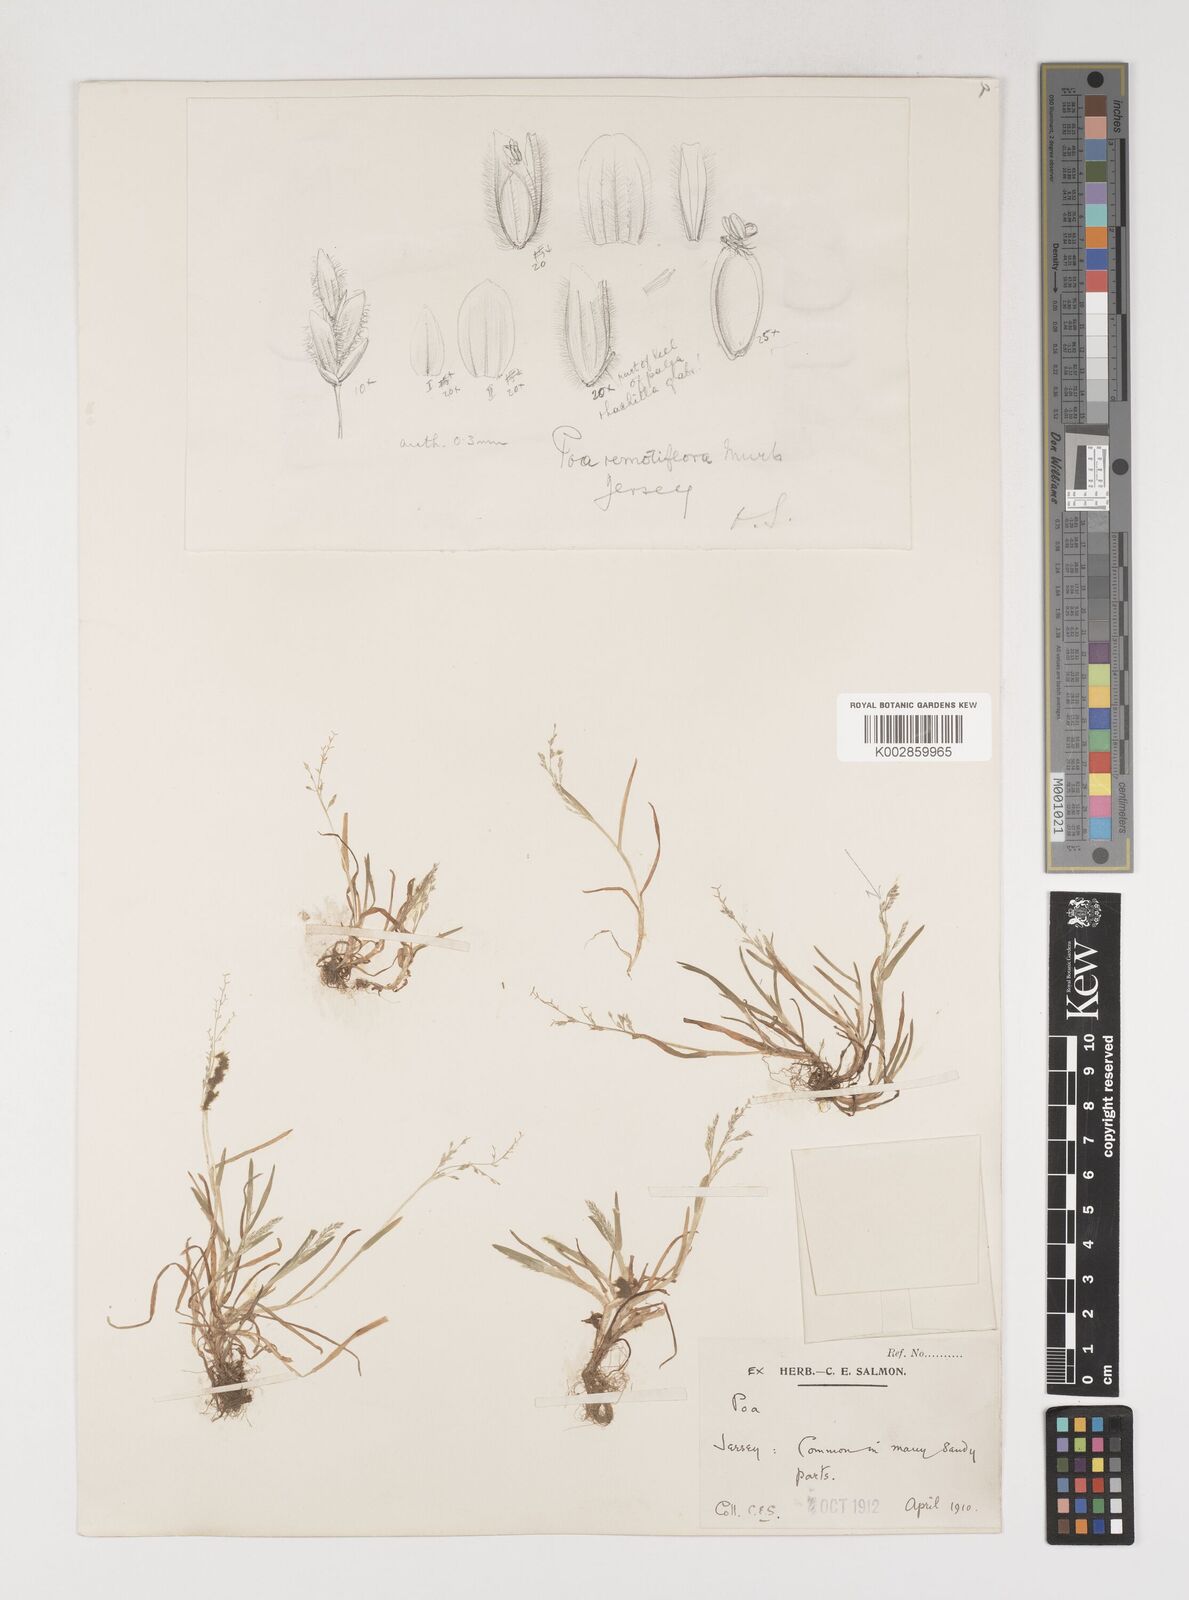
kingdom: Plantae
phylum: Tracheophyta
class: Liliopsida
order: Poales
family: Poaceae
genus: Poa
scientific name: Poa infirma
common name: Weak bluegrass
